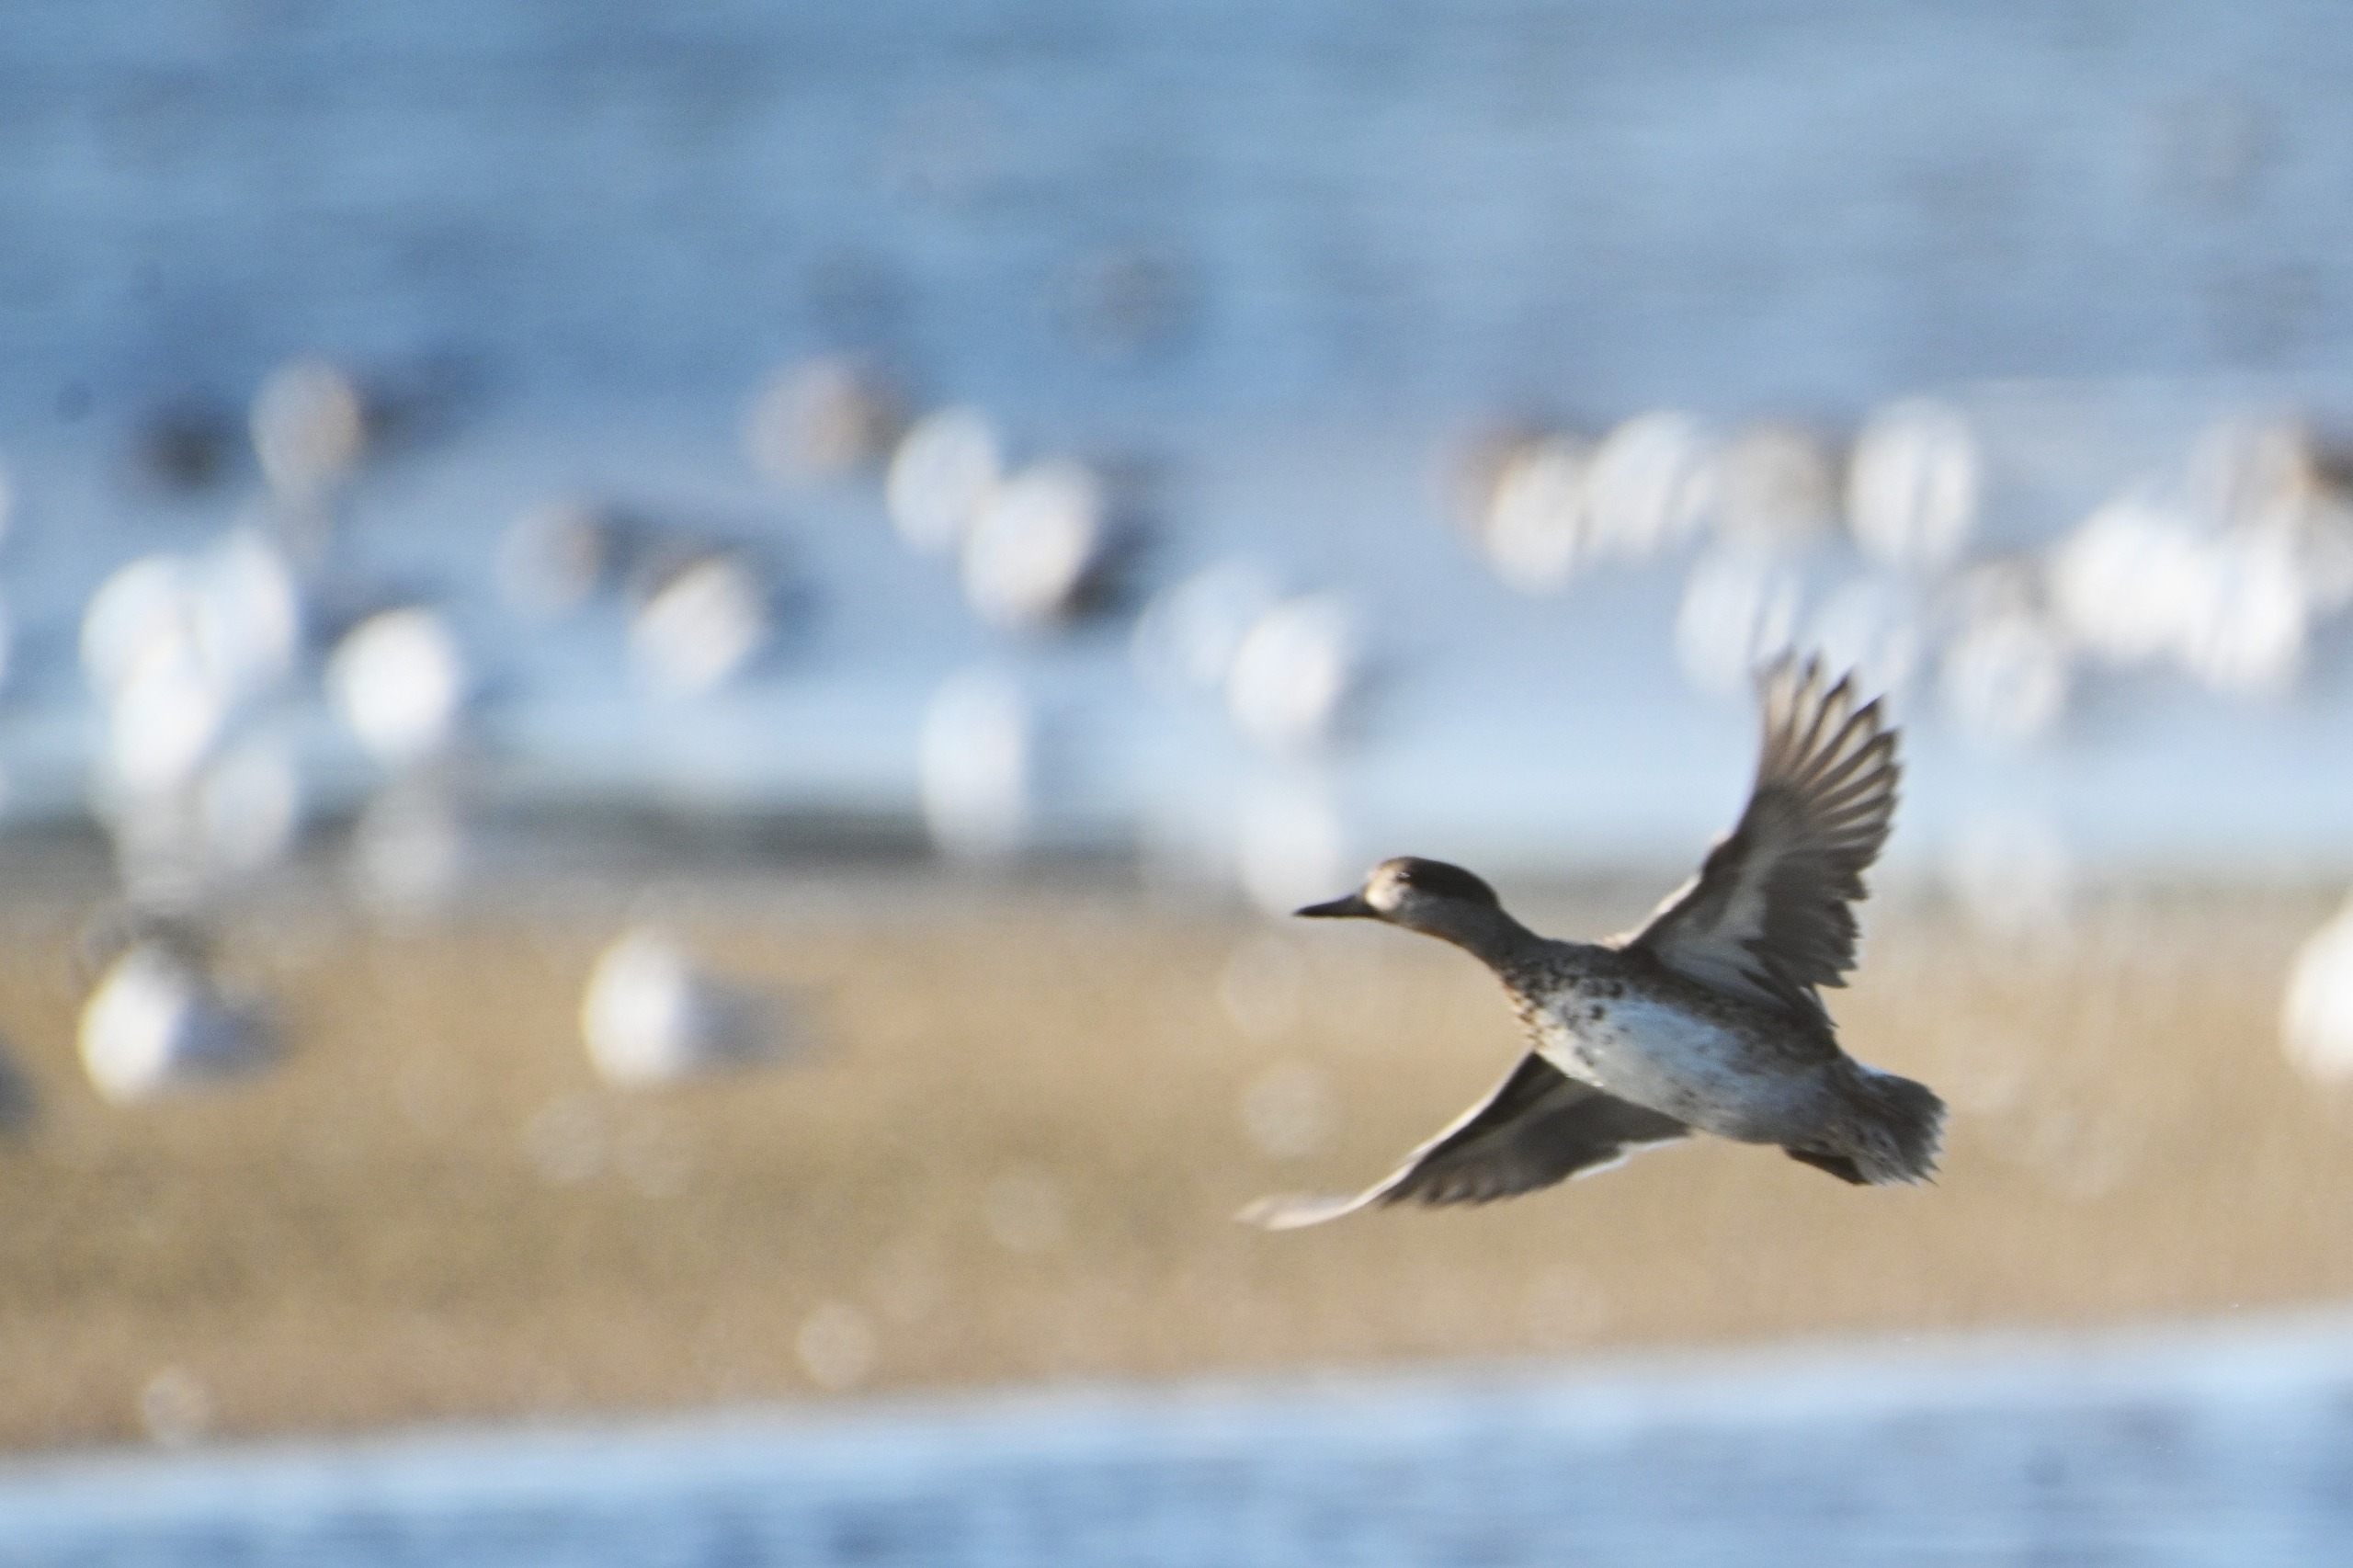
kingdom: Animalia
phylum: Chordata
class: Aves
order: Anseriformes
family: Anatidae
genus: Anas
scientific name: Anas crecca
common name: Krikand
